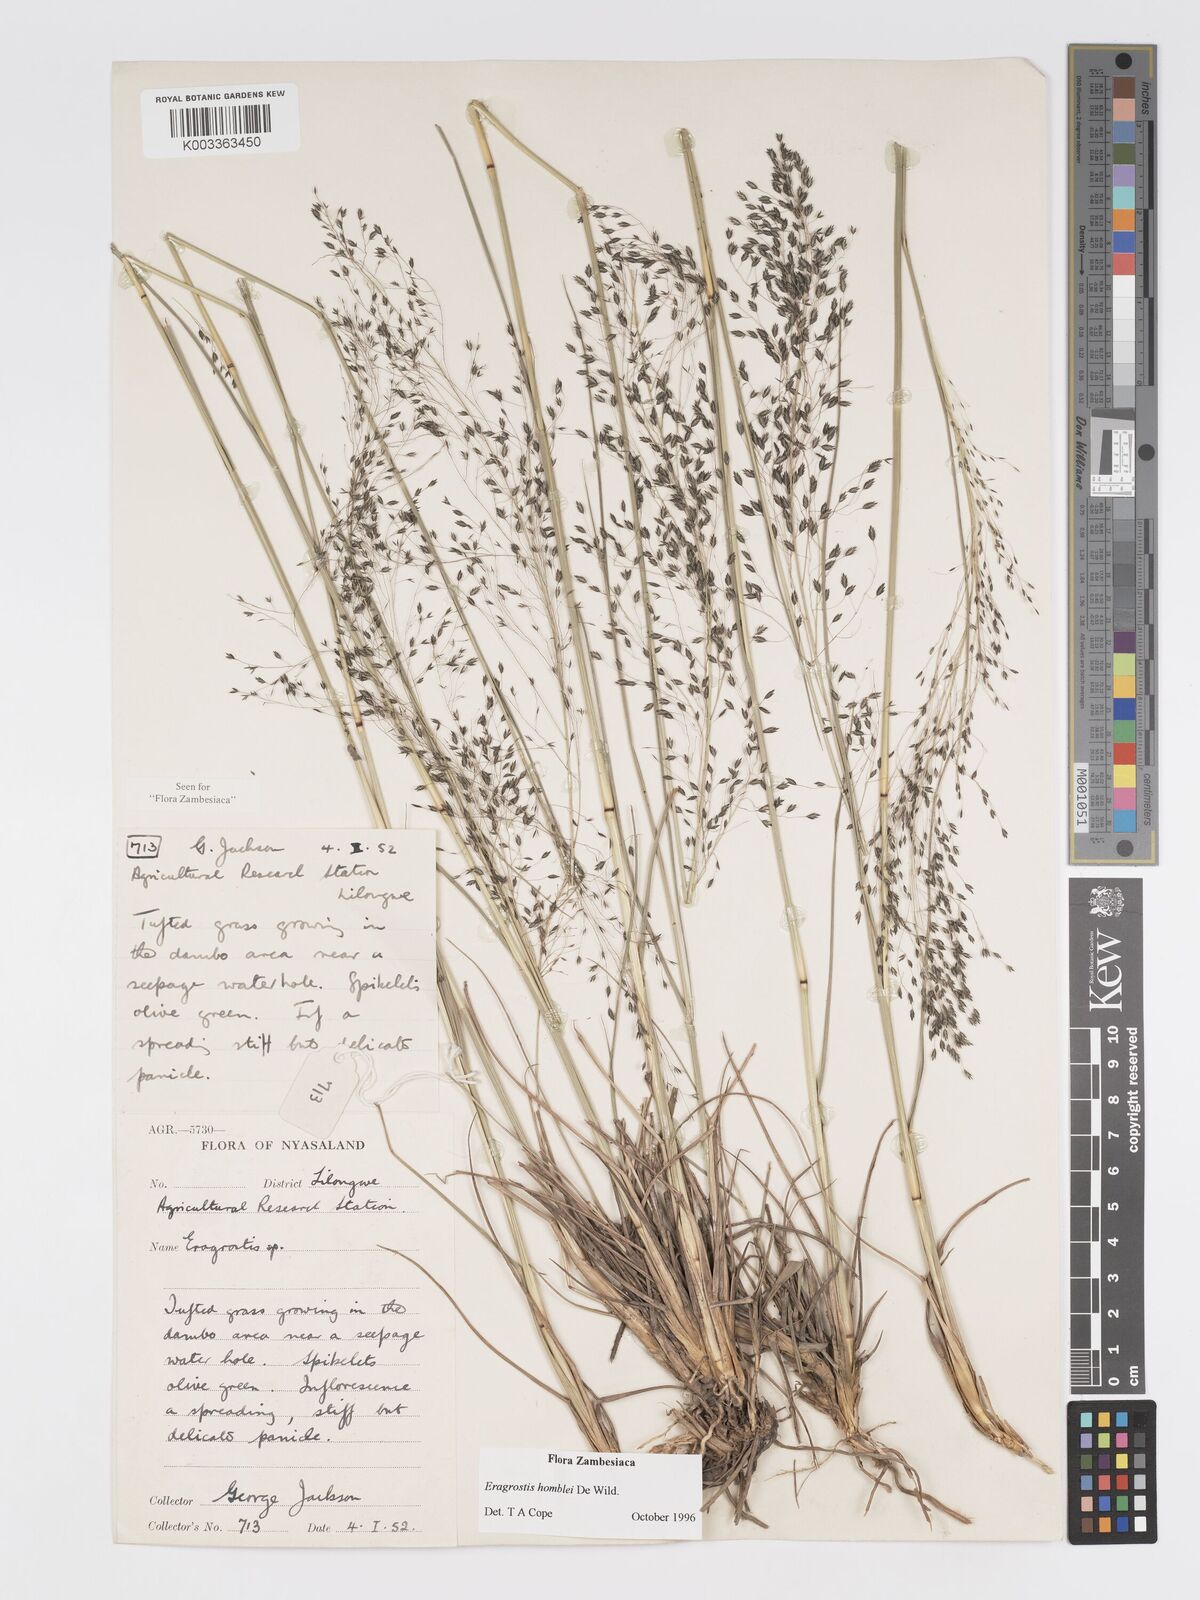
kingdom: Plantae
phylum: Tracheophyta
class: Liliopsida
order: Poales
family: Poaceae
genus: Eragrostis
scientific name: Eragrostis homblei
